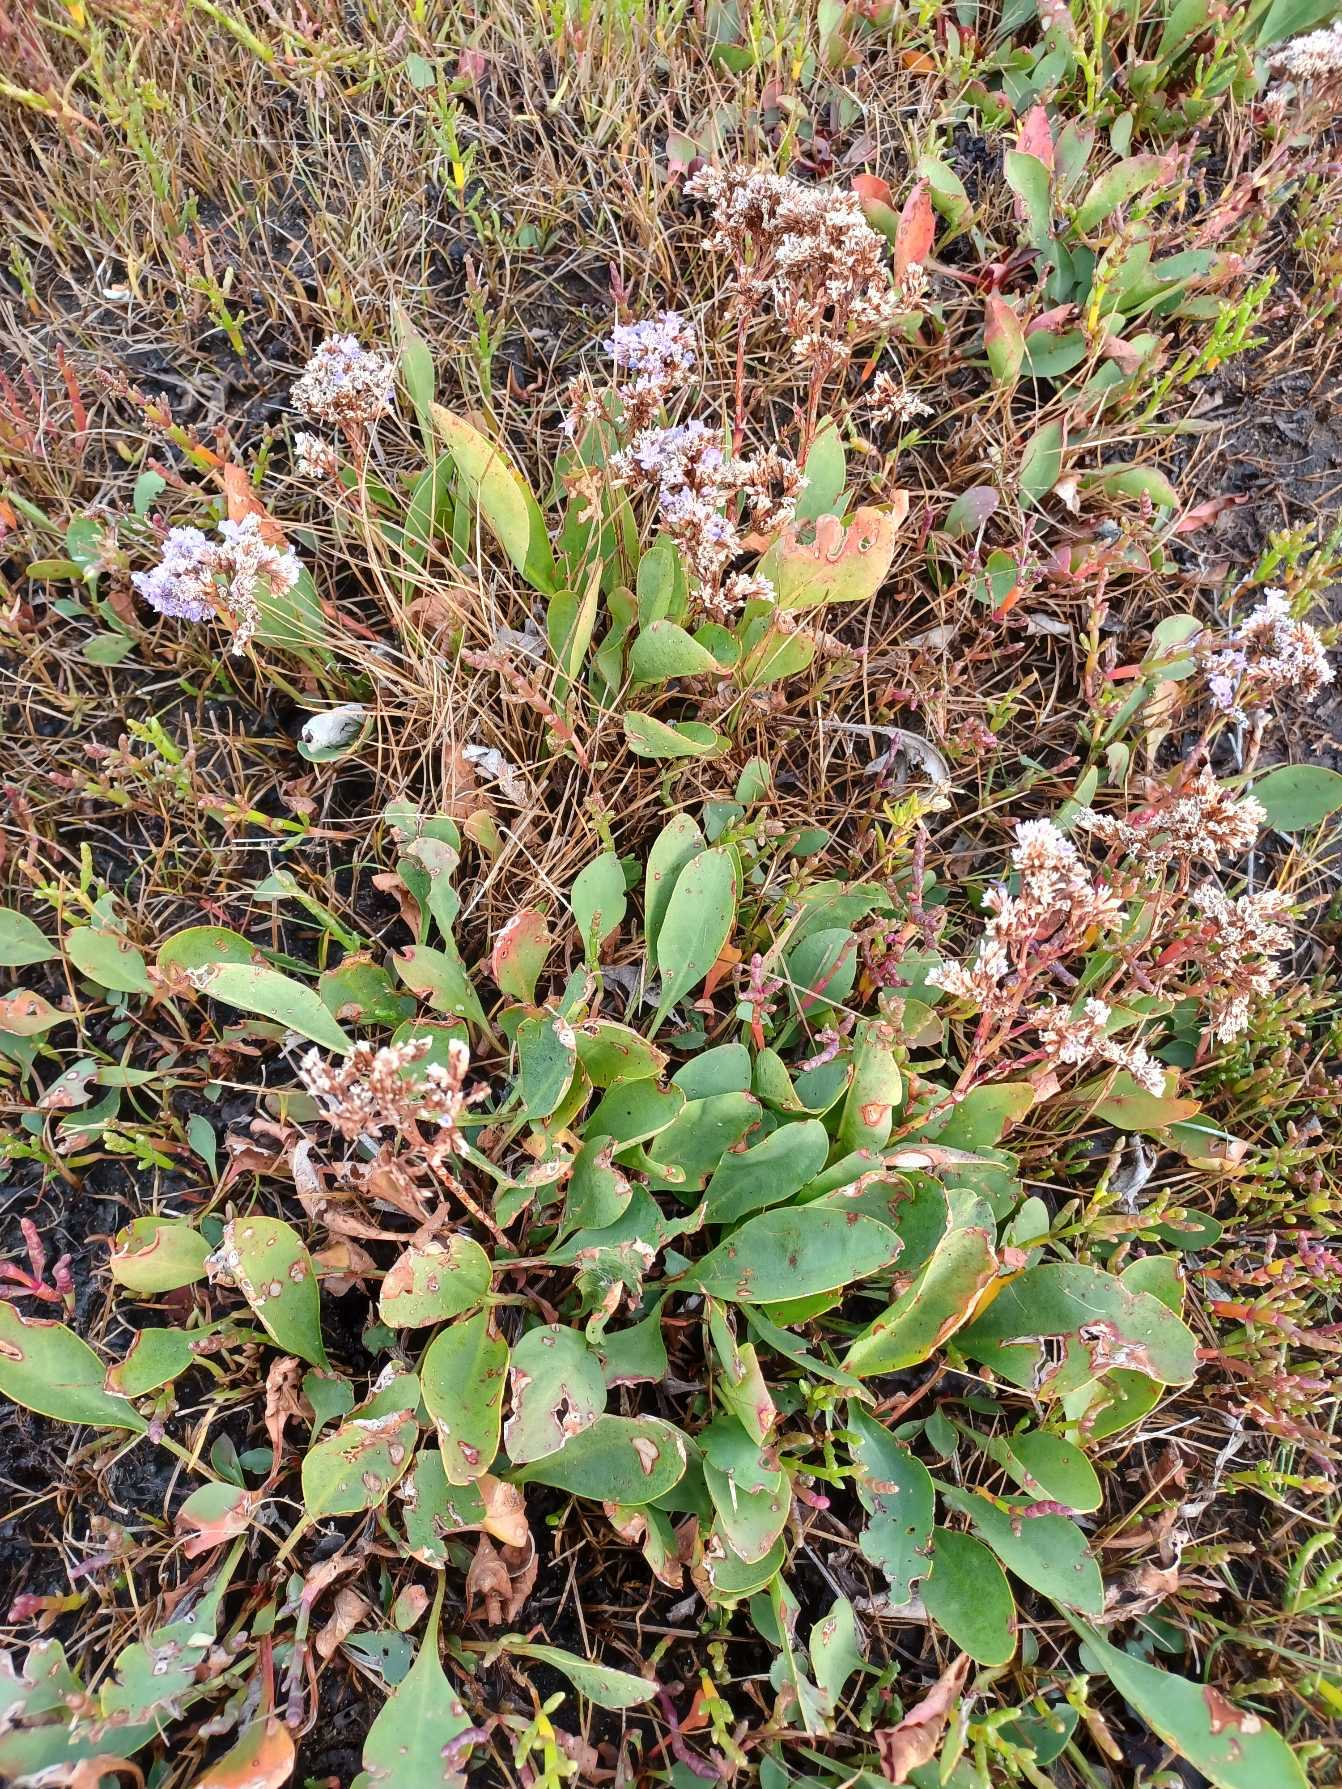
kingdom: Plantae
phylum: Tracheophyta
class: Magnoliopsida
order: Caryophyllales
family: Plumbaginaceae
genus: Limonium
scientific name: Limonium vulgare
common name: Tætblomstret hindebæger
